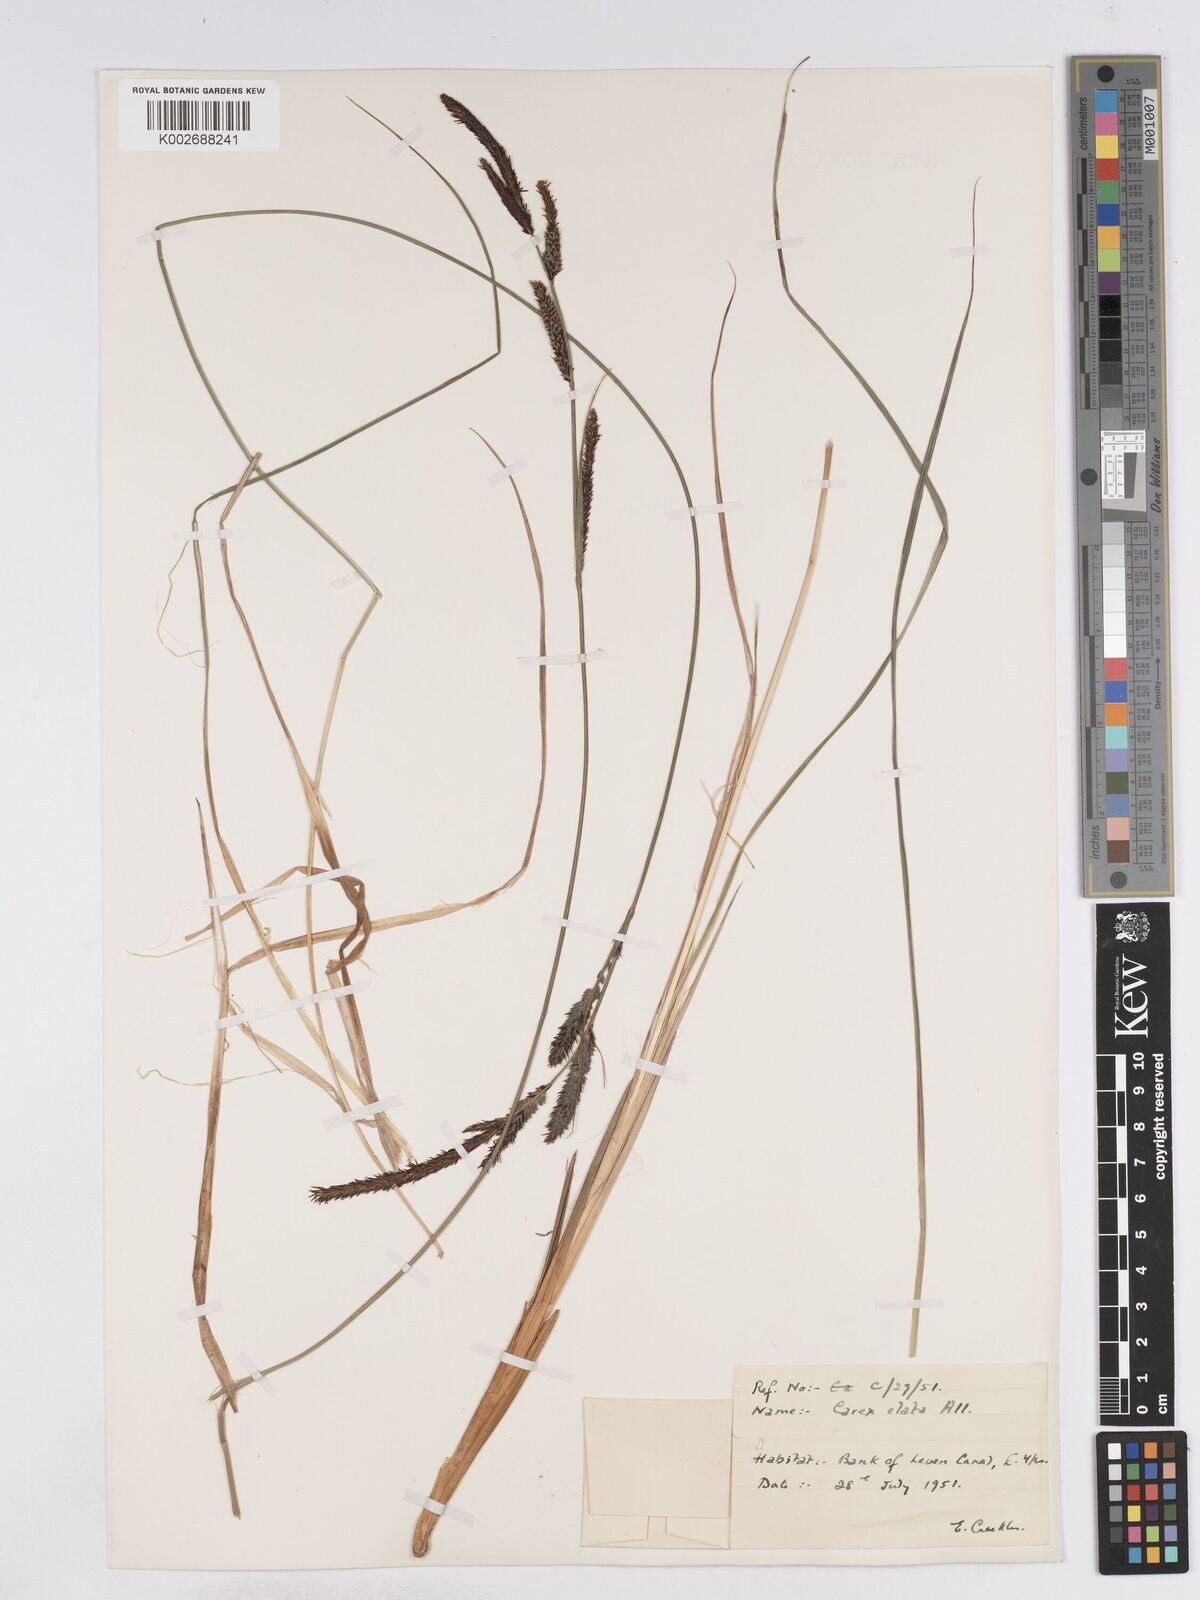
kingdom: Plantae
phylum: Tracheophyta
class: Liliopsida
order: Poales
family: Cyperaceae
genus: Carex
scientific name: Carex elata
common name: Tufted sedge
